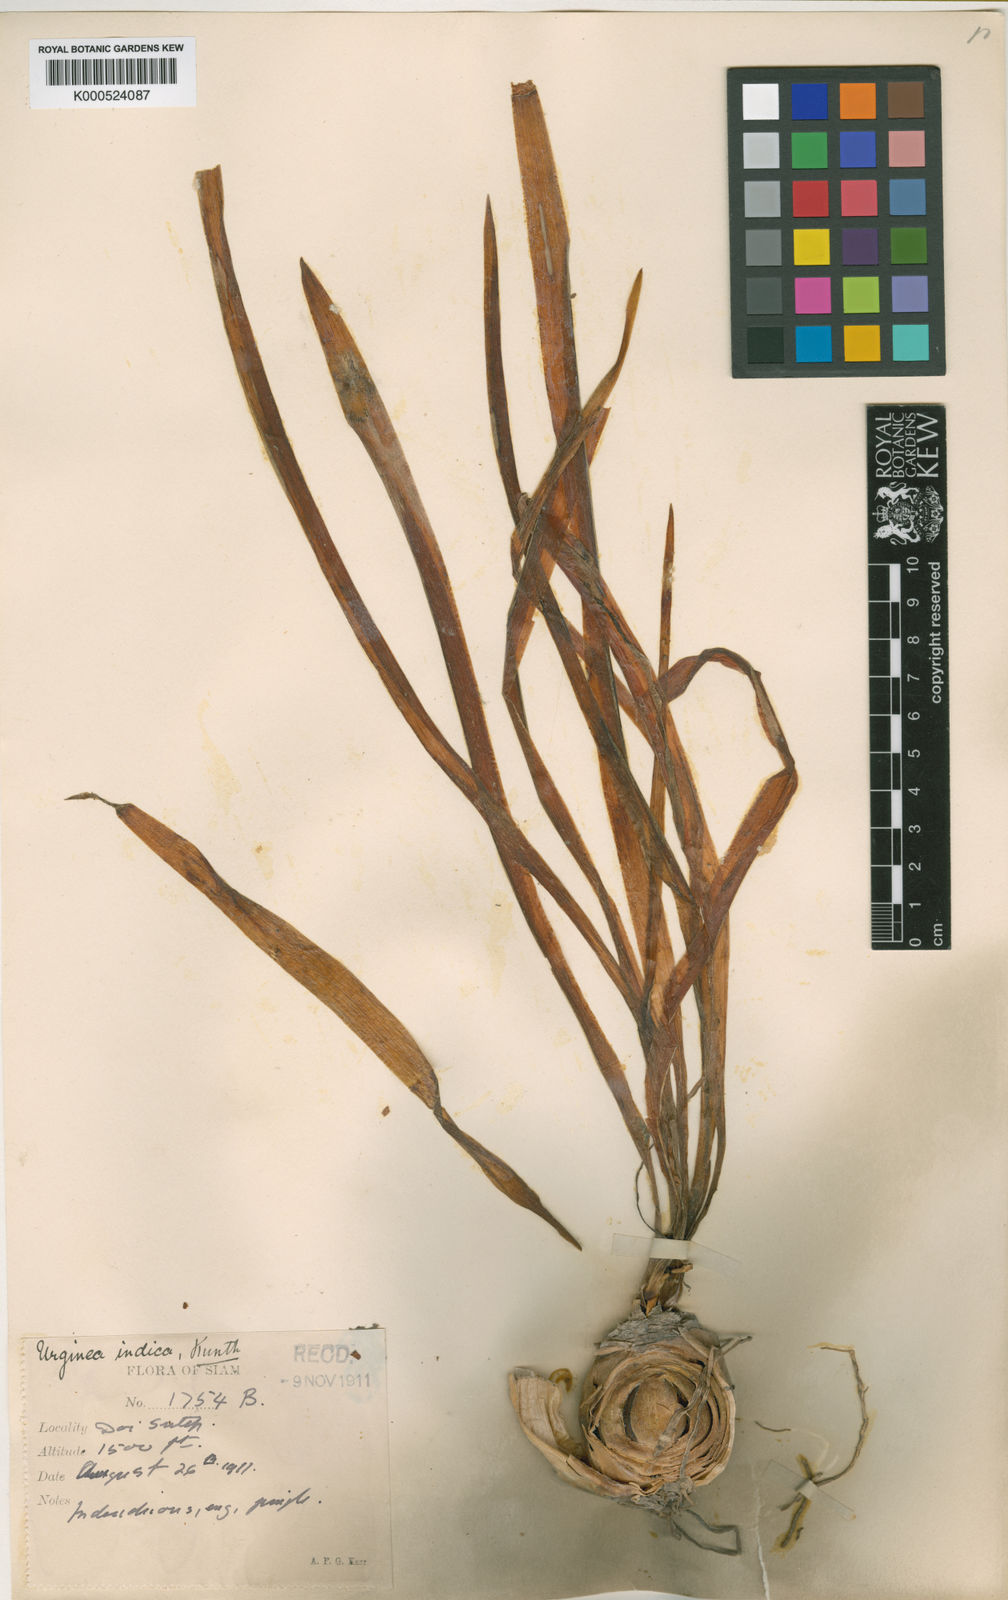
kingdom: Plantae
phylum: Tracheophyta
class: Liliopsida
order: Asparagales
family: Asparagaceae
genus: Drimia
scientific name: Drimia indica
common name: Indian-squill
